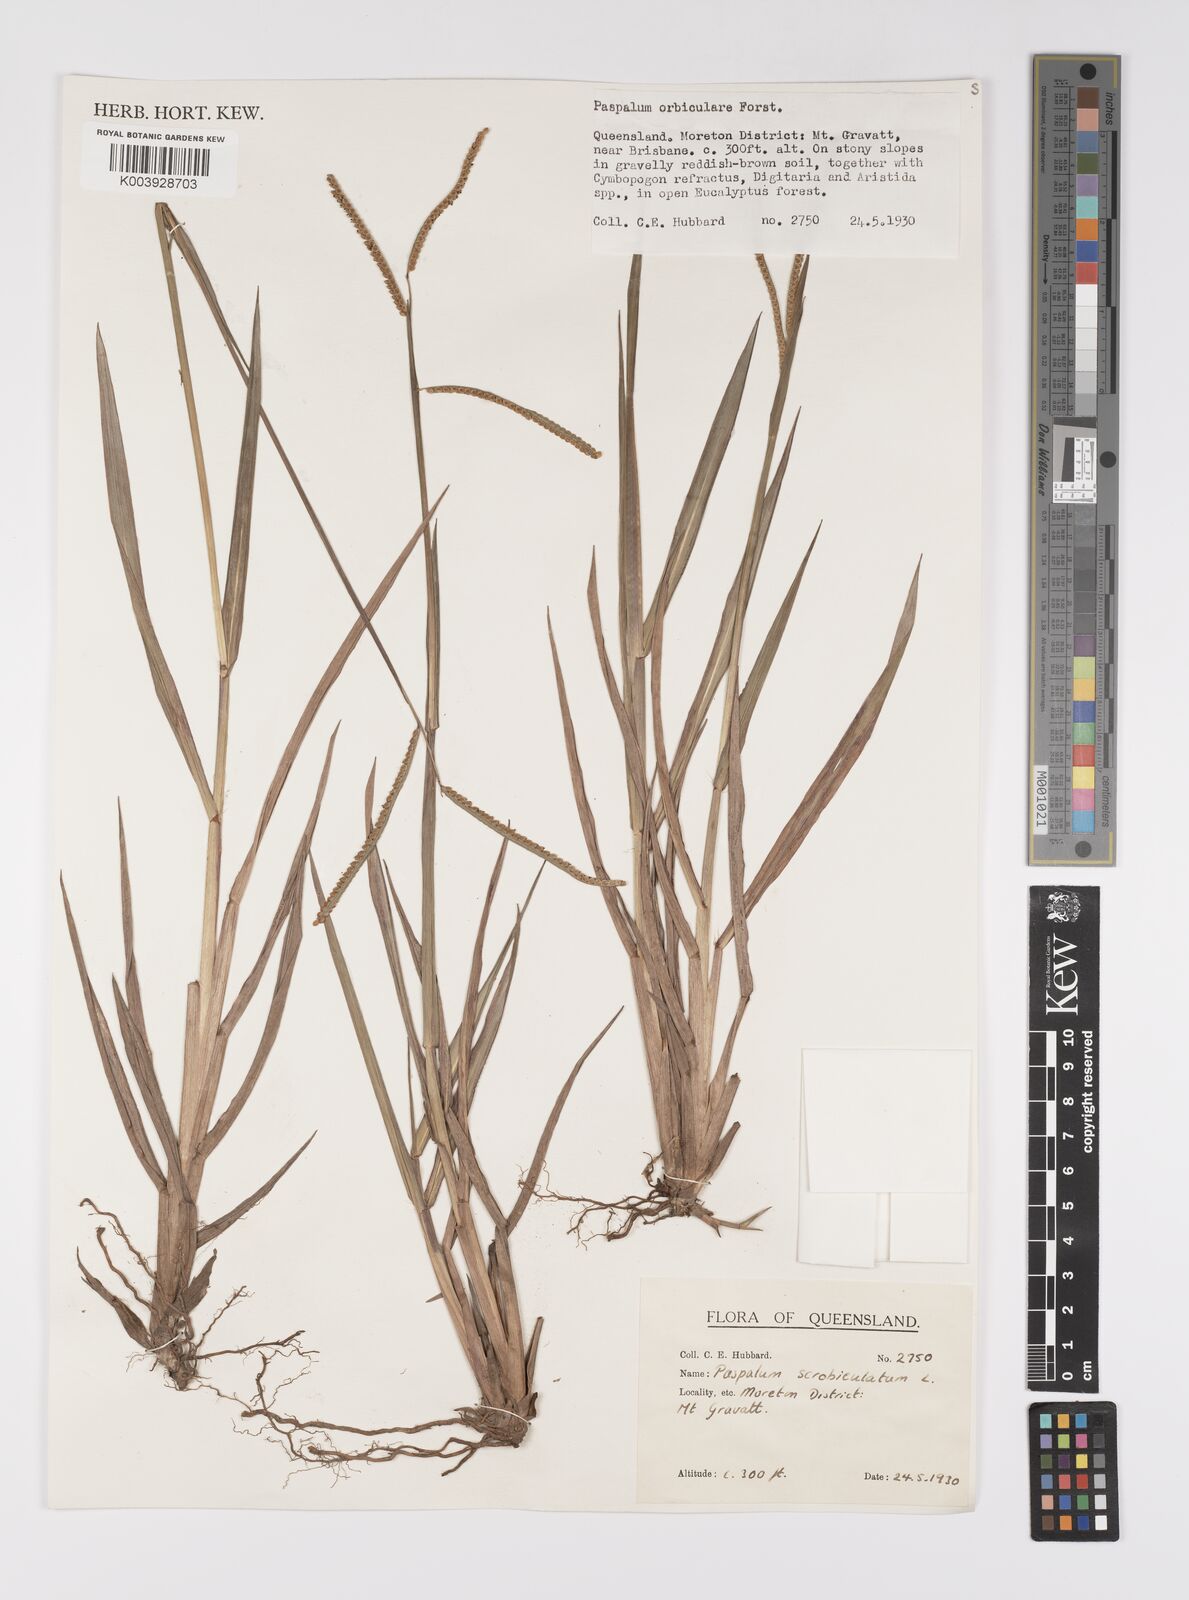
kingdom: Plantae
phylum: Tracheophyta
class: Liliopsida
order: Poales
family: Poaceae
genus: Paspalum
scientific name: Paspalum scrobiculatum
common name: Kodo millet
